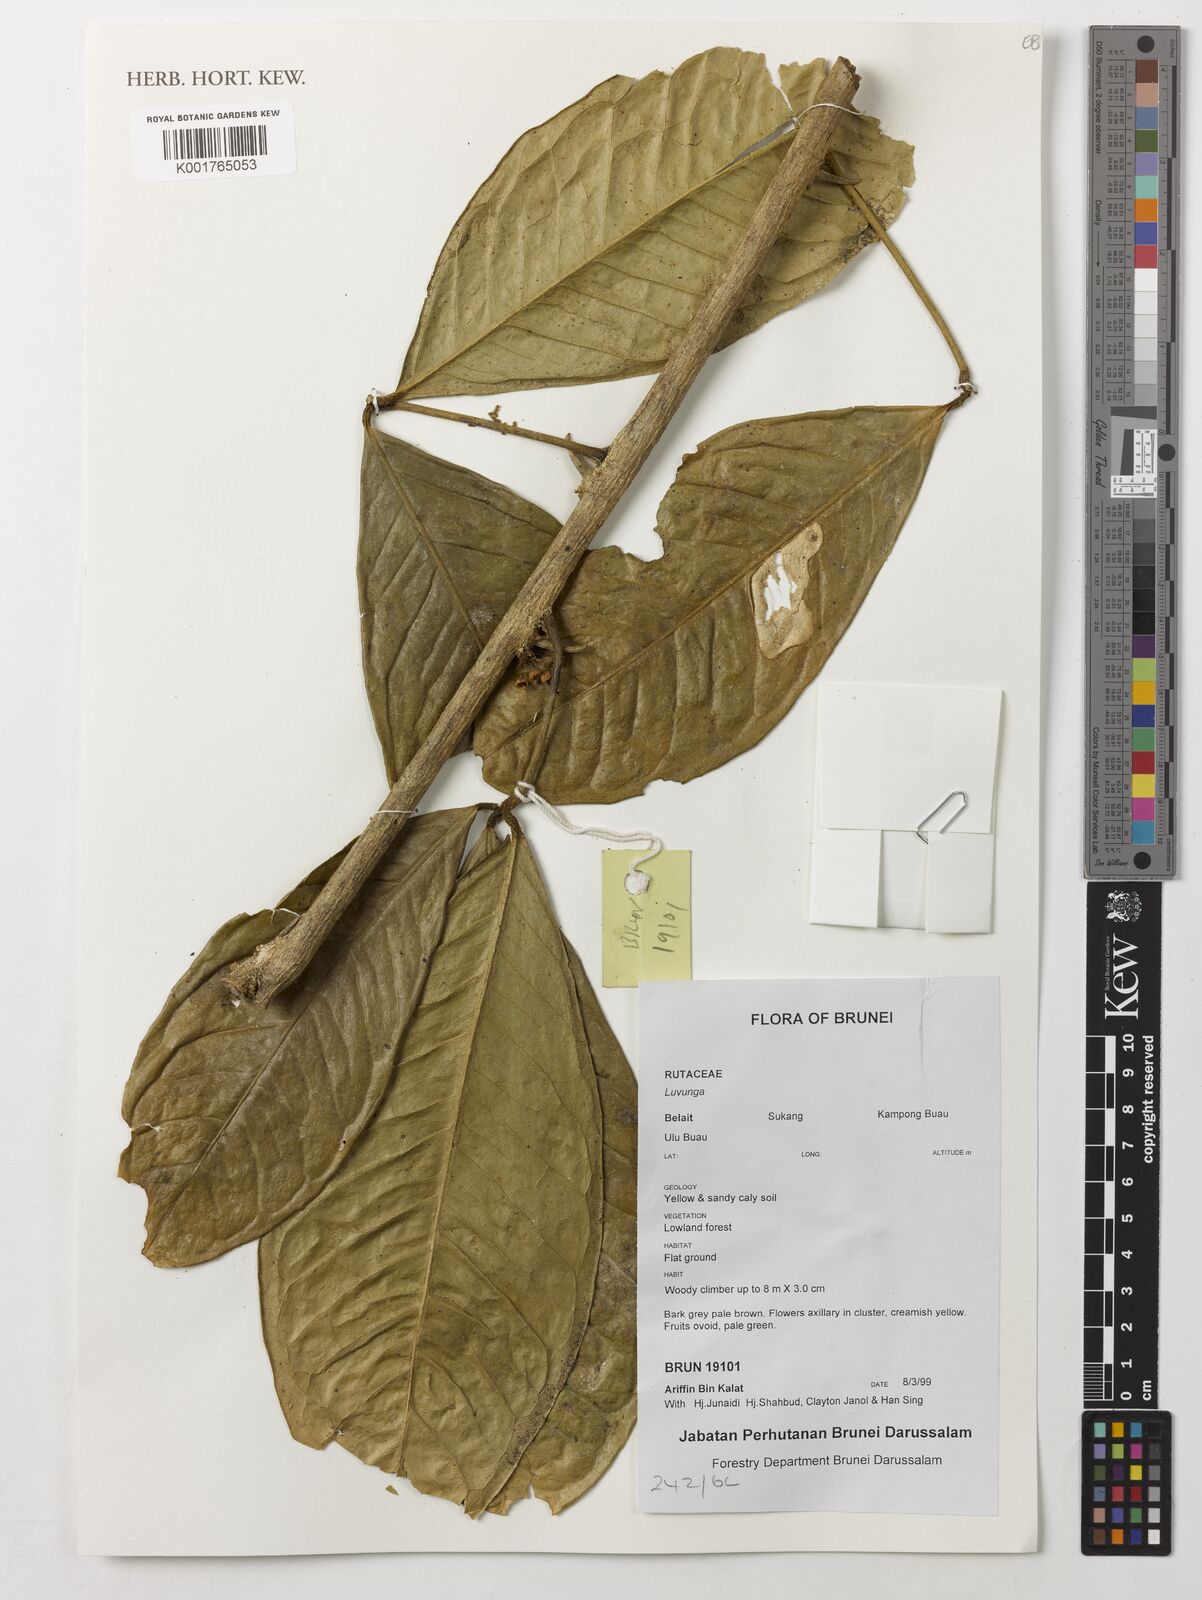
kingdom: Plantae
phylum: Tracheophyta
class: Magnoliopsida
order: Sapindales
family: Rutaceae
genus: Luvunga
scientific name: Luvunga
